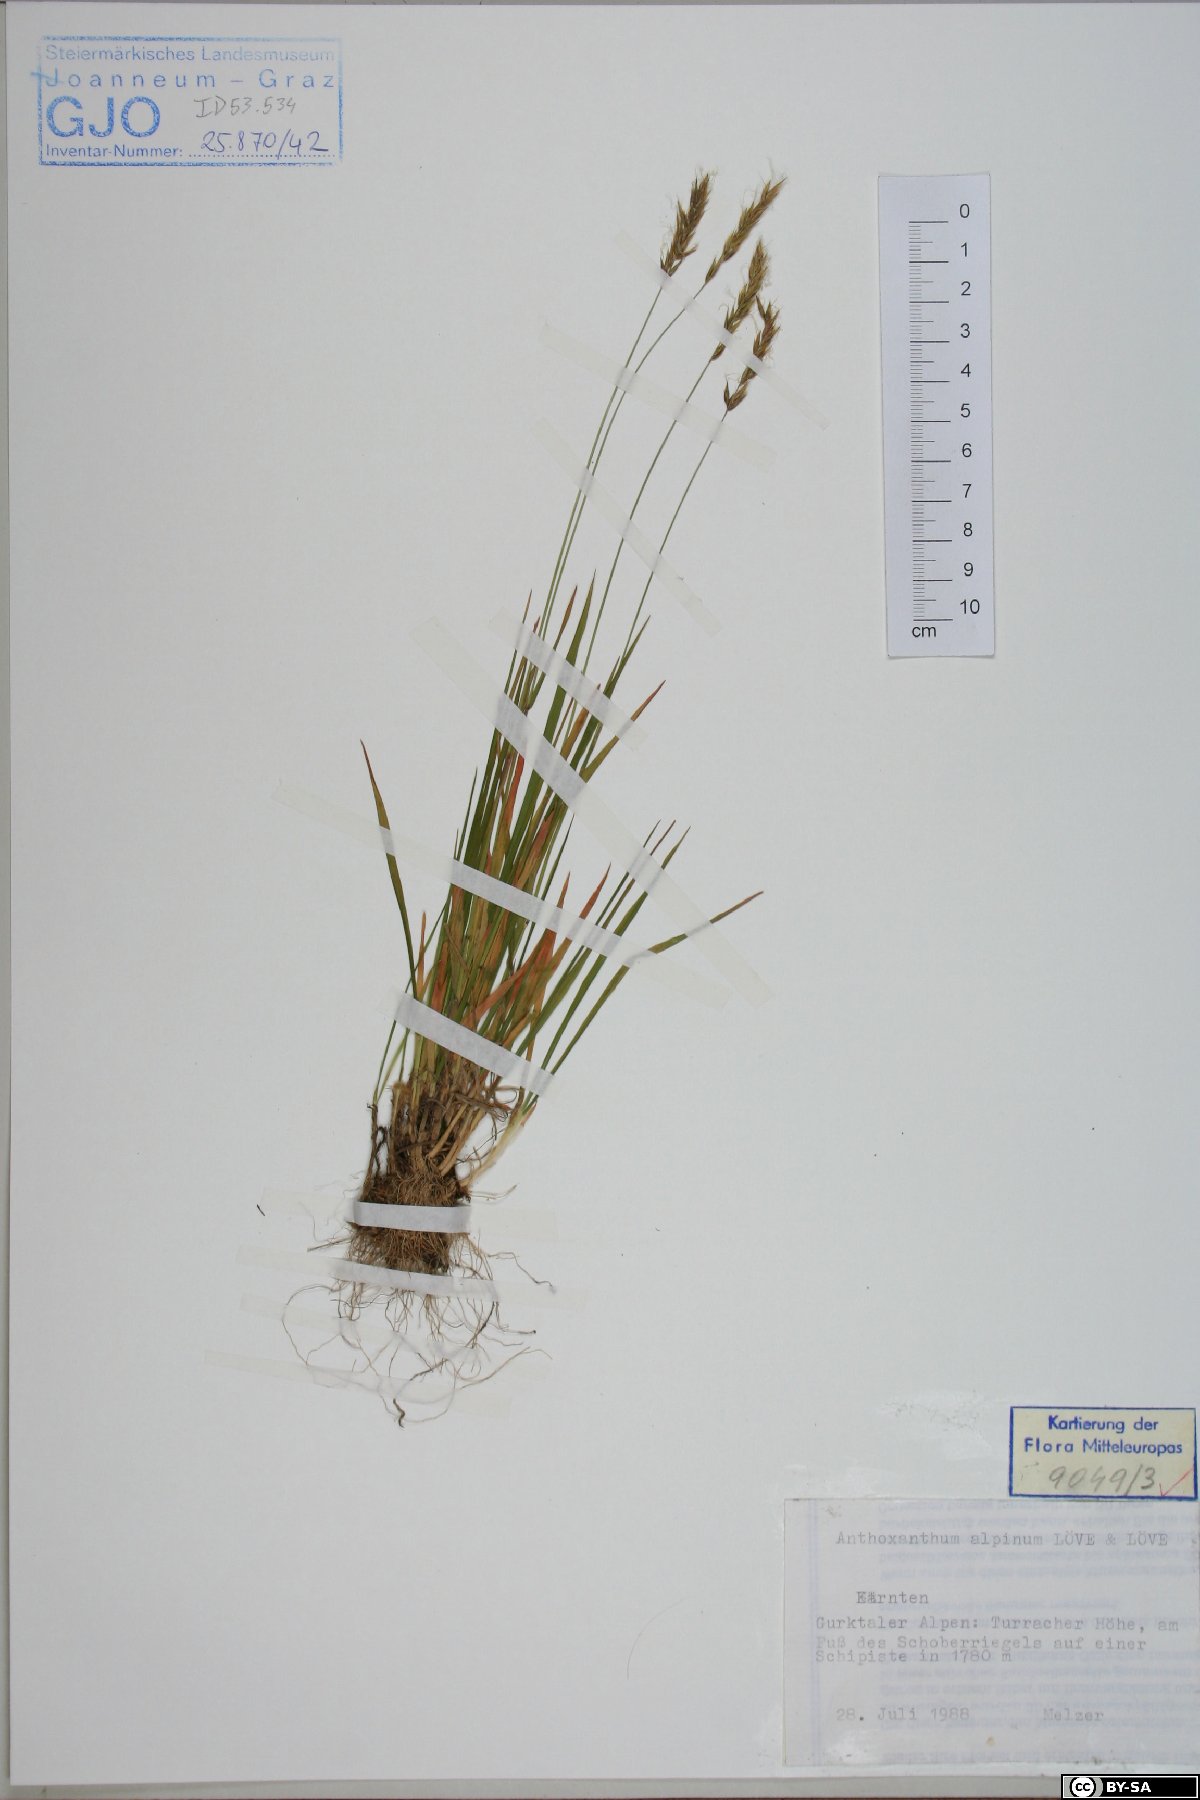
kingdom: Plantae
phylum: Tracheophyta
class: Liliopsida
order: Poales
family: Poaceae
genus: Anthoxanthum
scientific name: Anthoxanthum nipponicum
